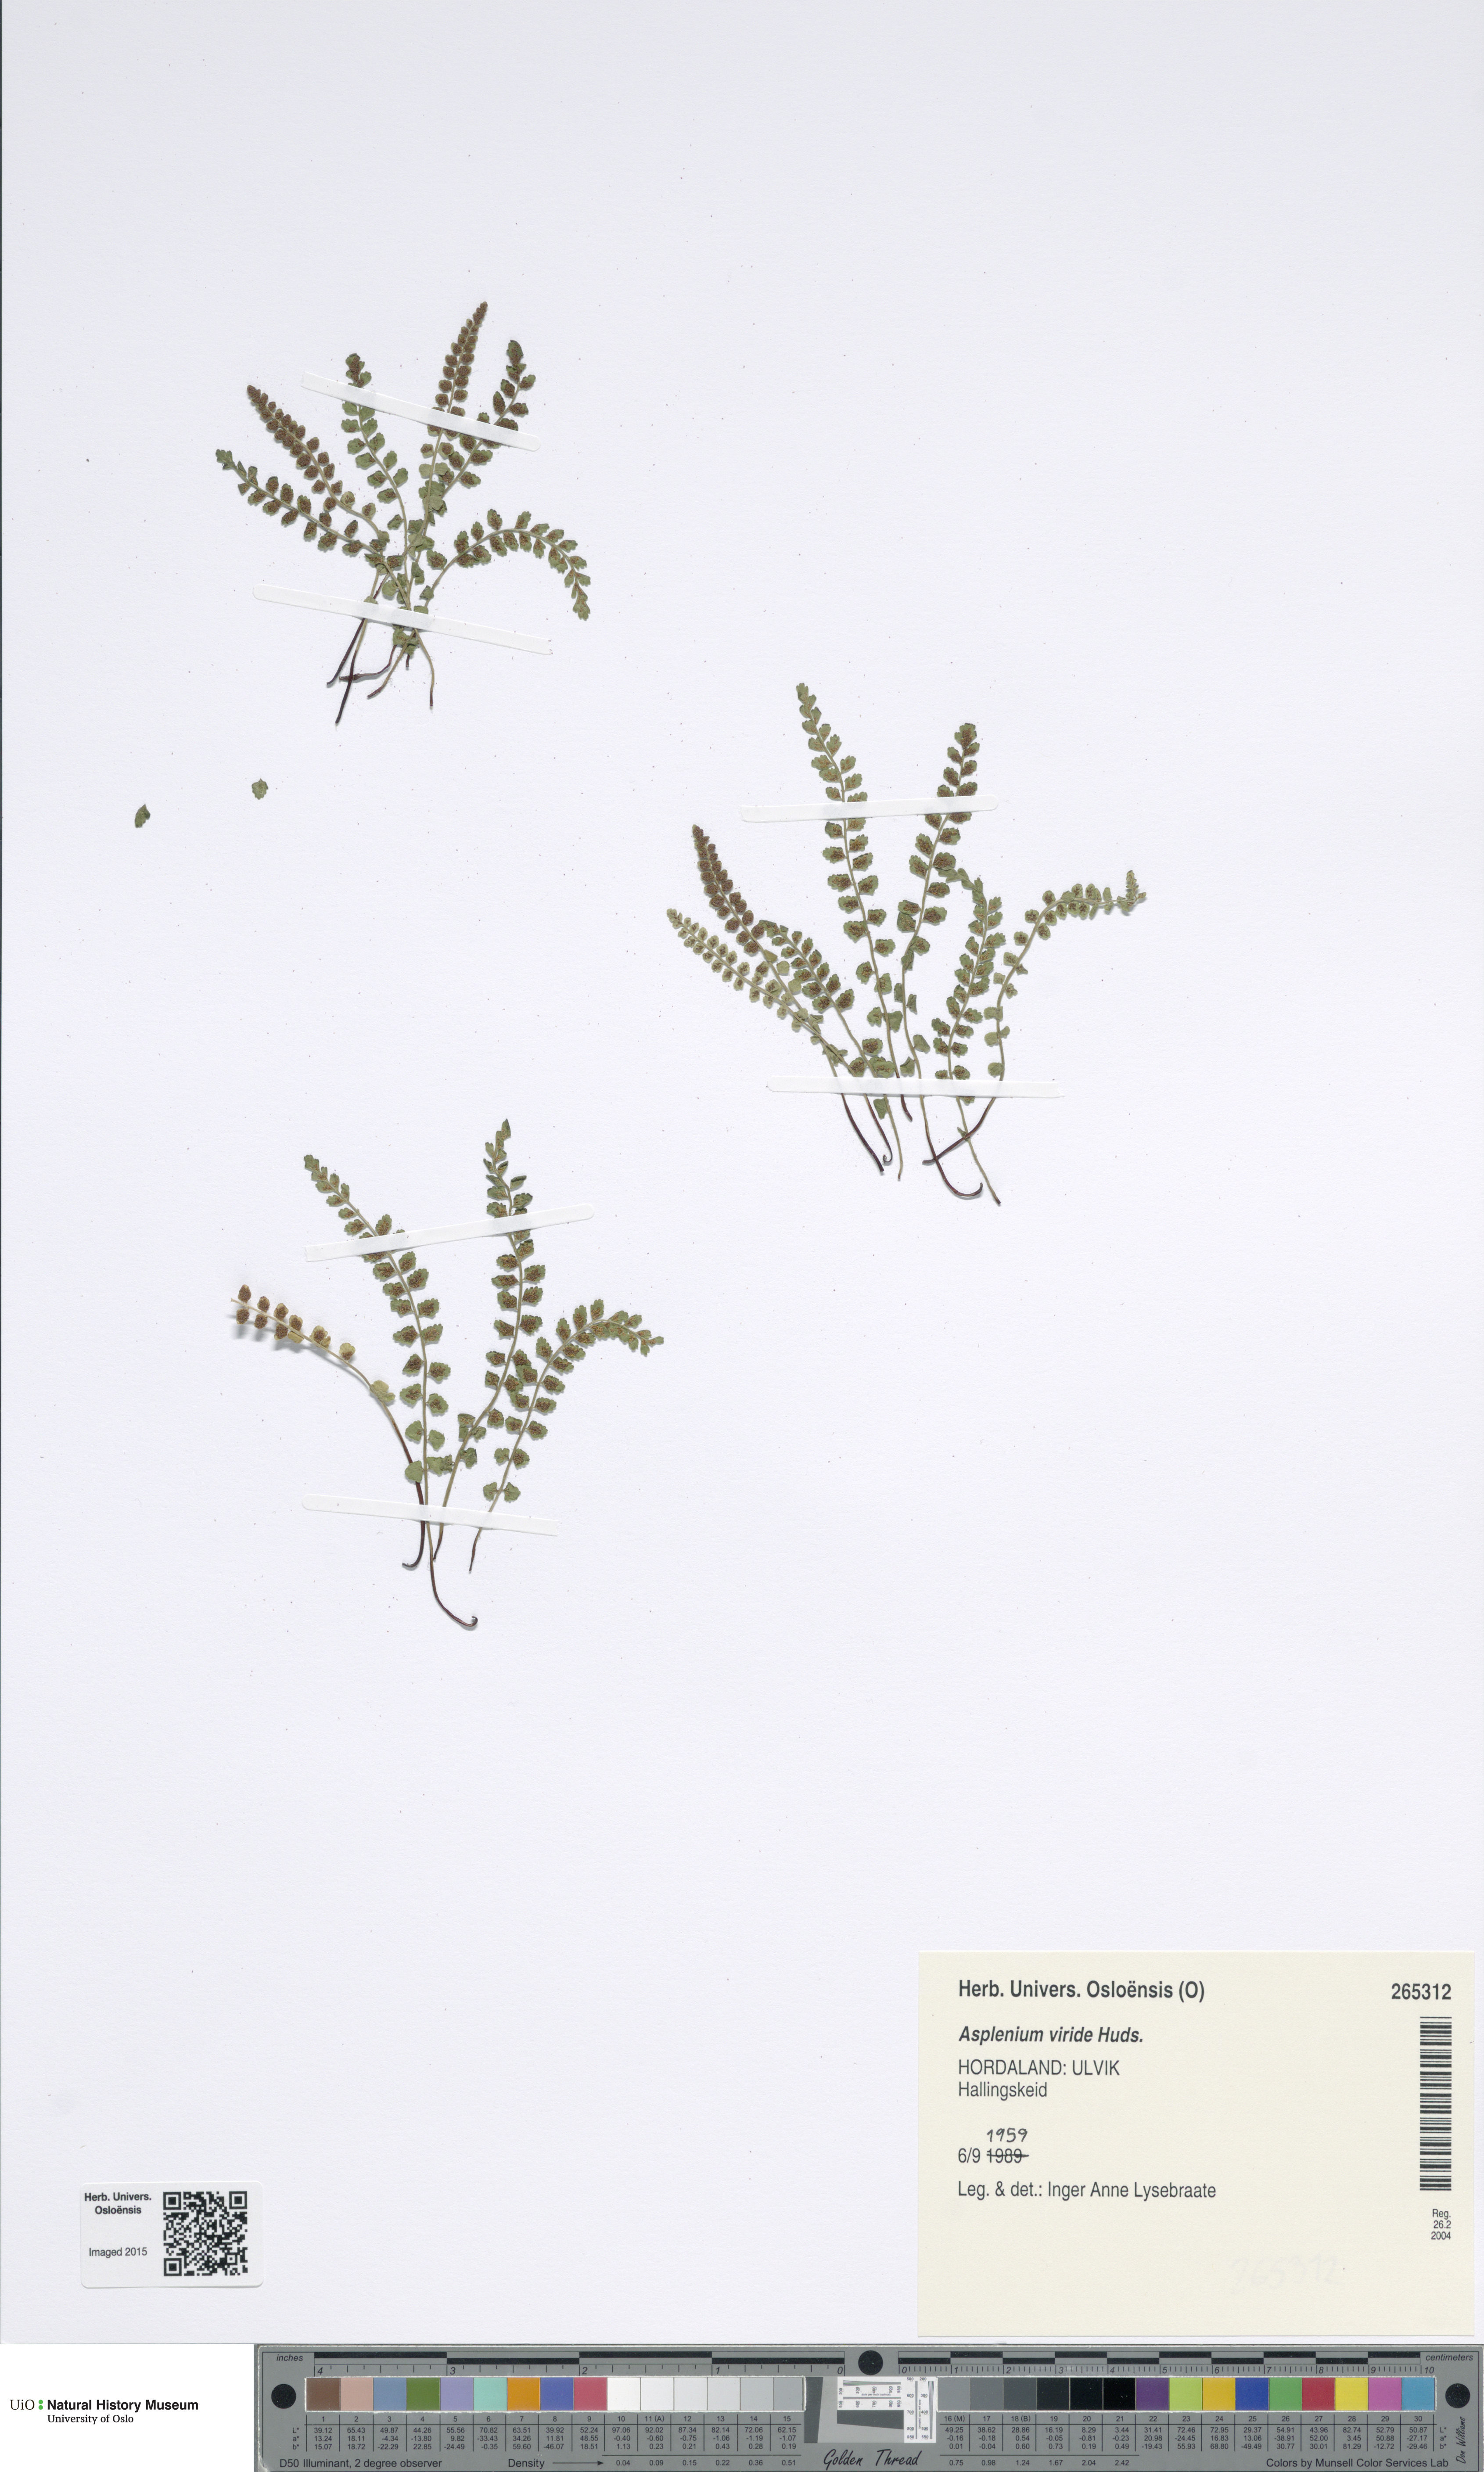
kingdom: Plantae
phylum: Tracheophyta
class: Polypodiopsida
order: Polypodiales
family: Aspleniaceae
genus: Asplenium
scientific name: Asplenium viride
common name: Green spleenwort
